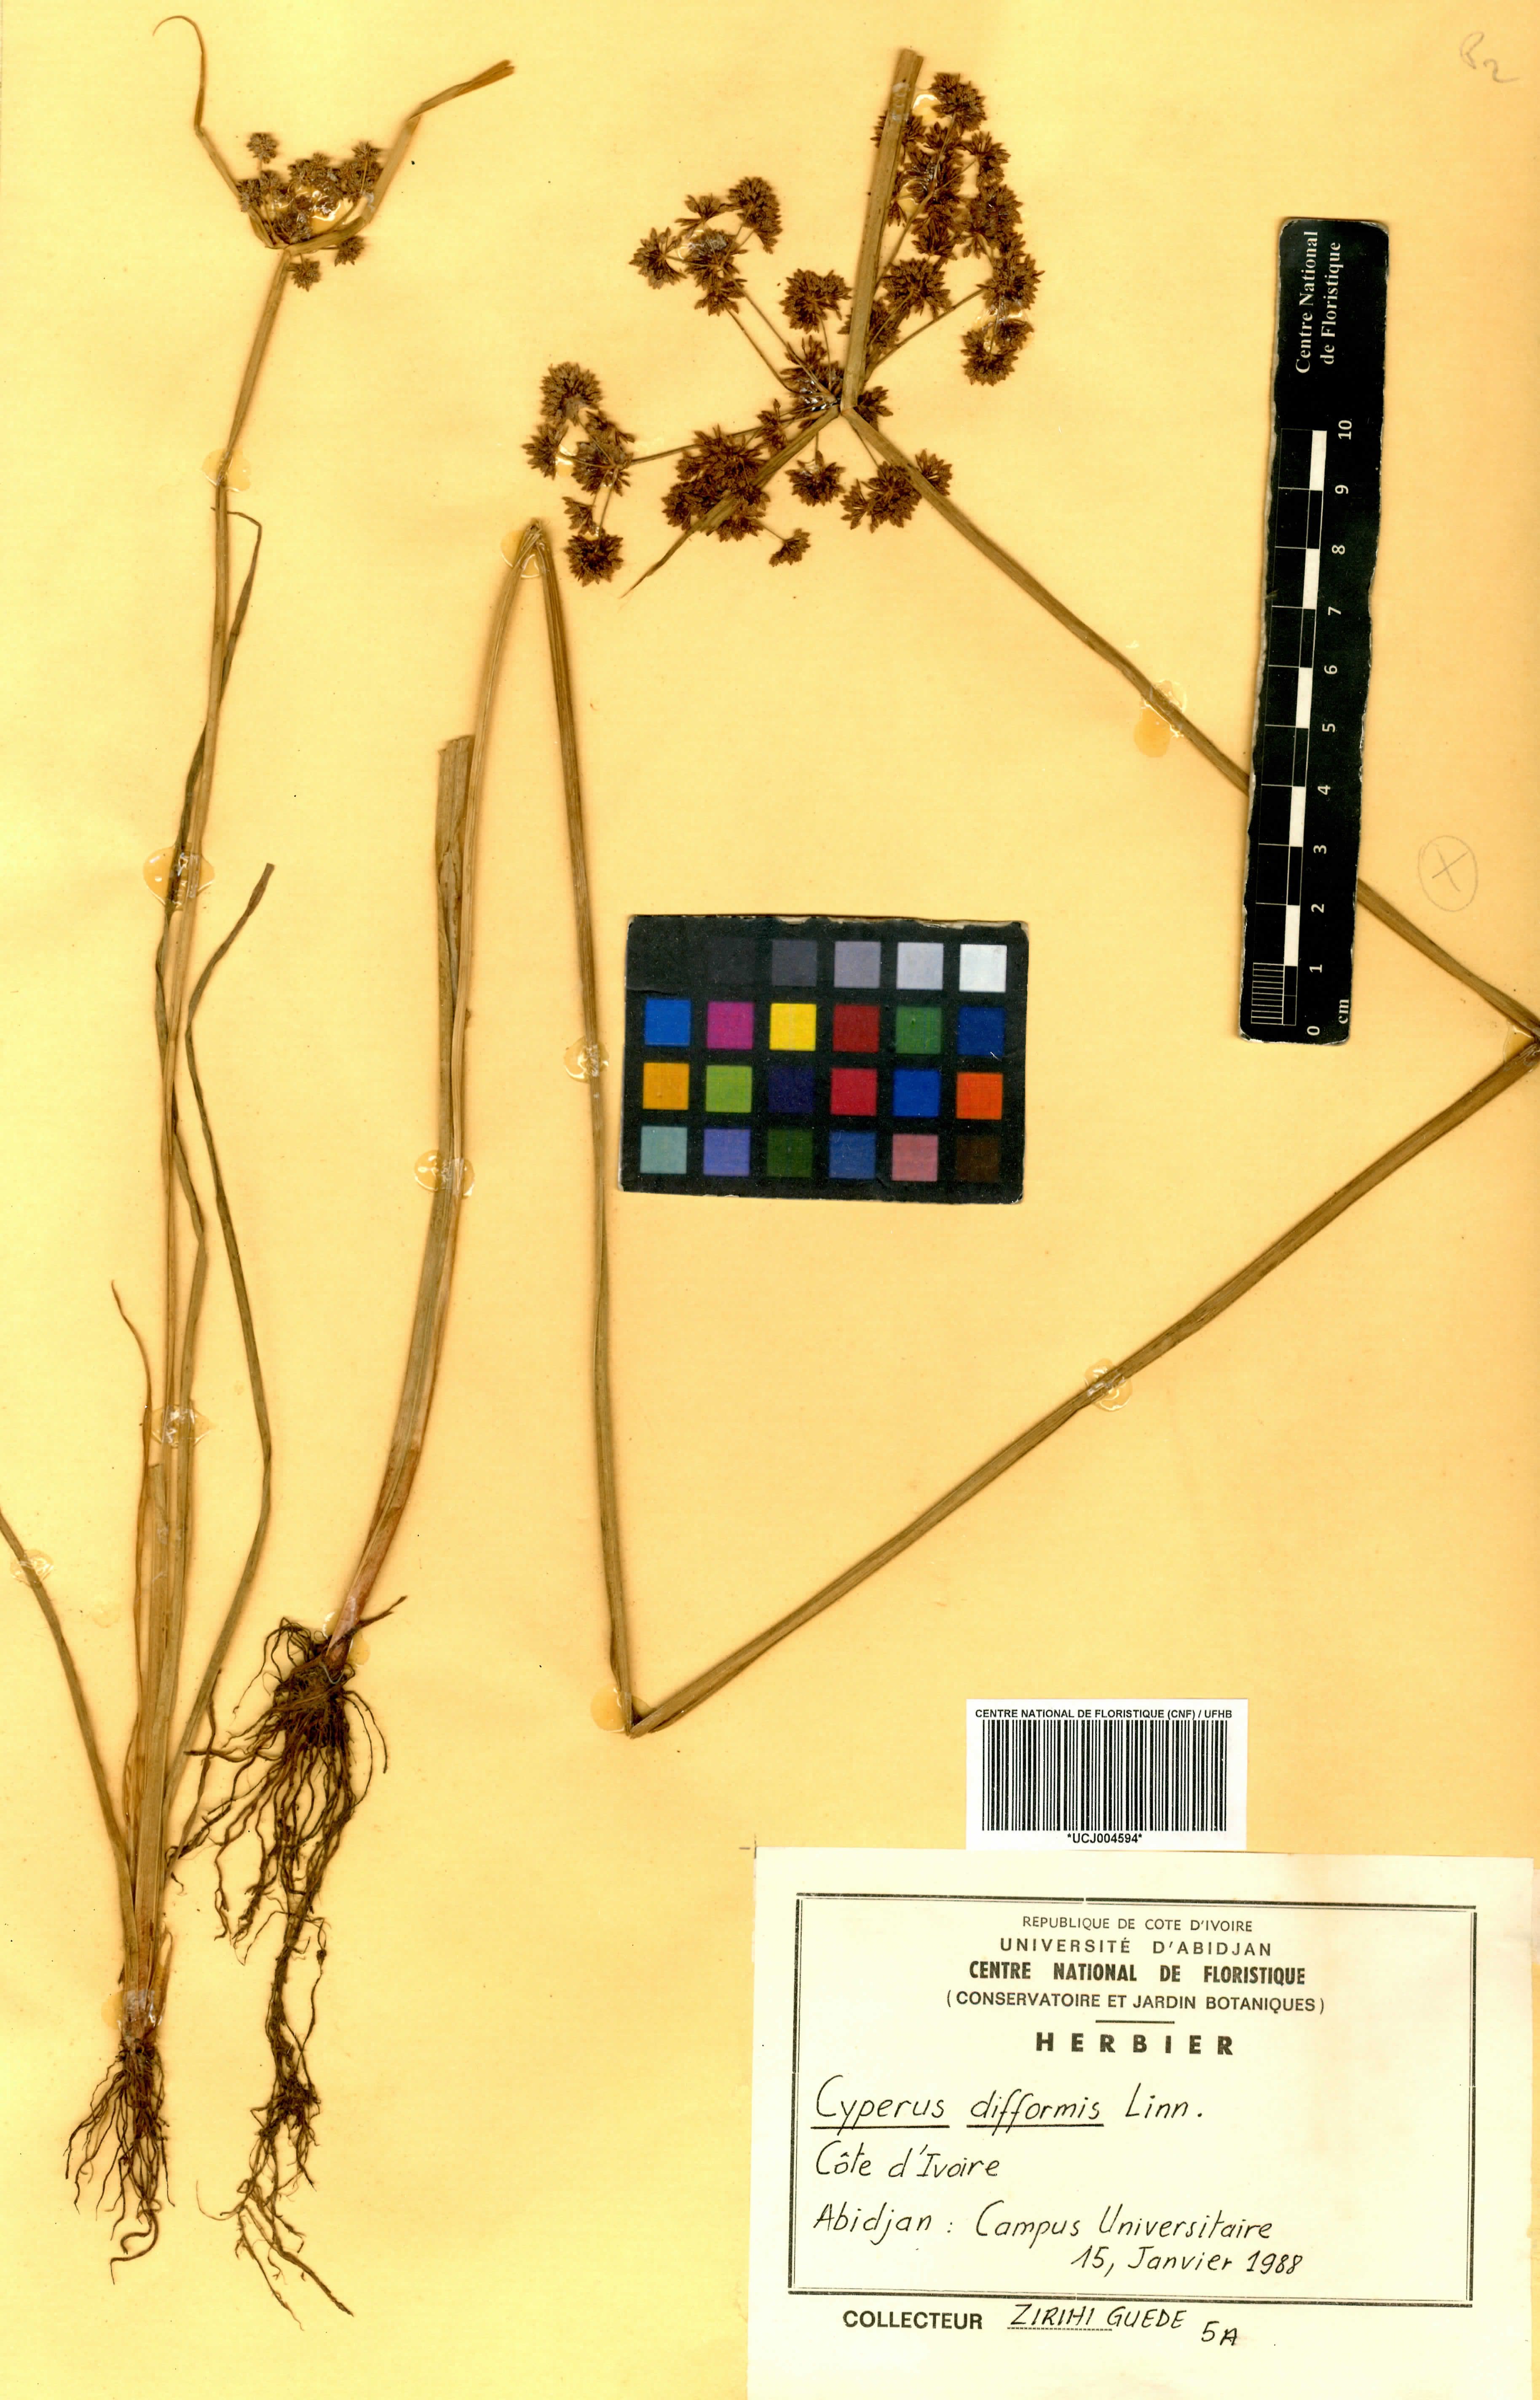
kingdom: Plantae
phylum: Tracheophyta
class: Liliopsida
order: Poales
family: Cyperaceae
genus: Cyperus
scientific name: Cyperus difformis
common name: Variable flatsedge
